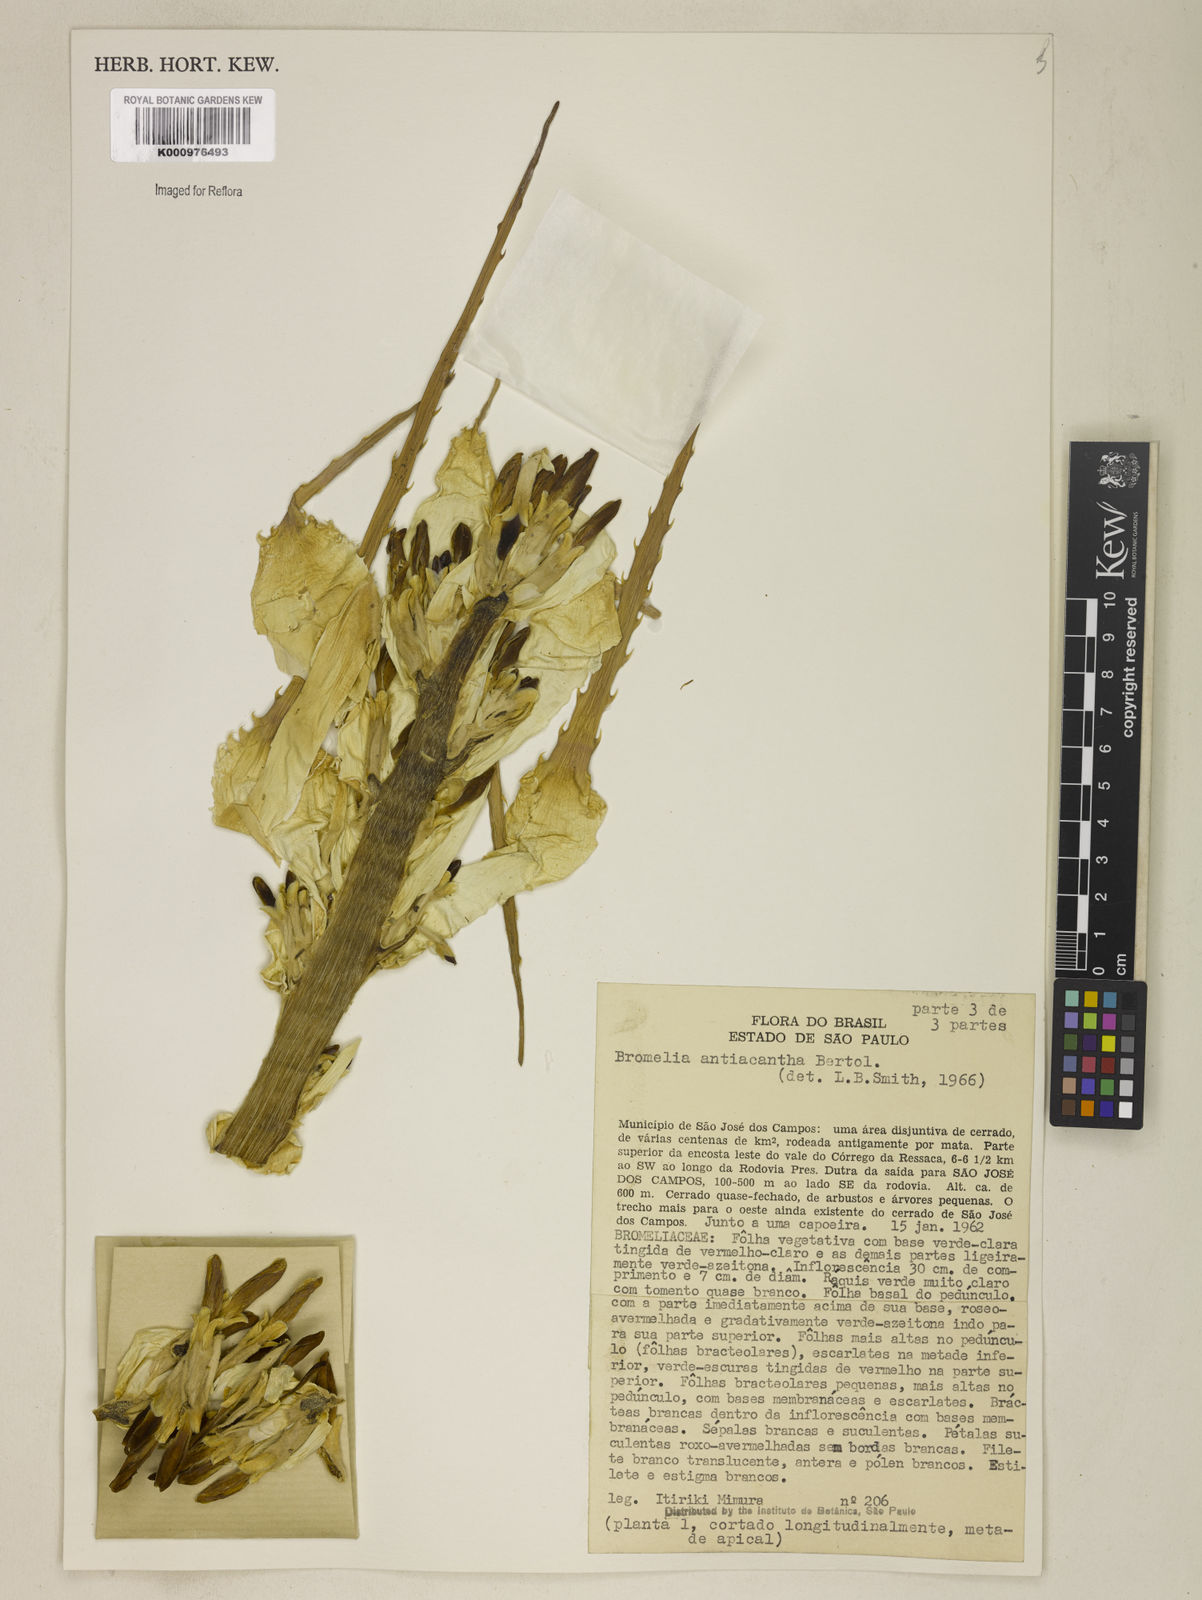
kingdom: Plantae
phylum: Tracheophyta
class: Liliopsida
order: Poales
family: Bromeliaceae
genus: Bromelia
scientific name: Bromelia antiacantha
